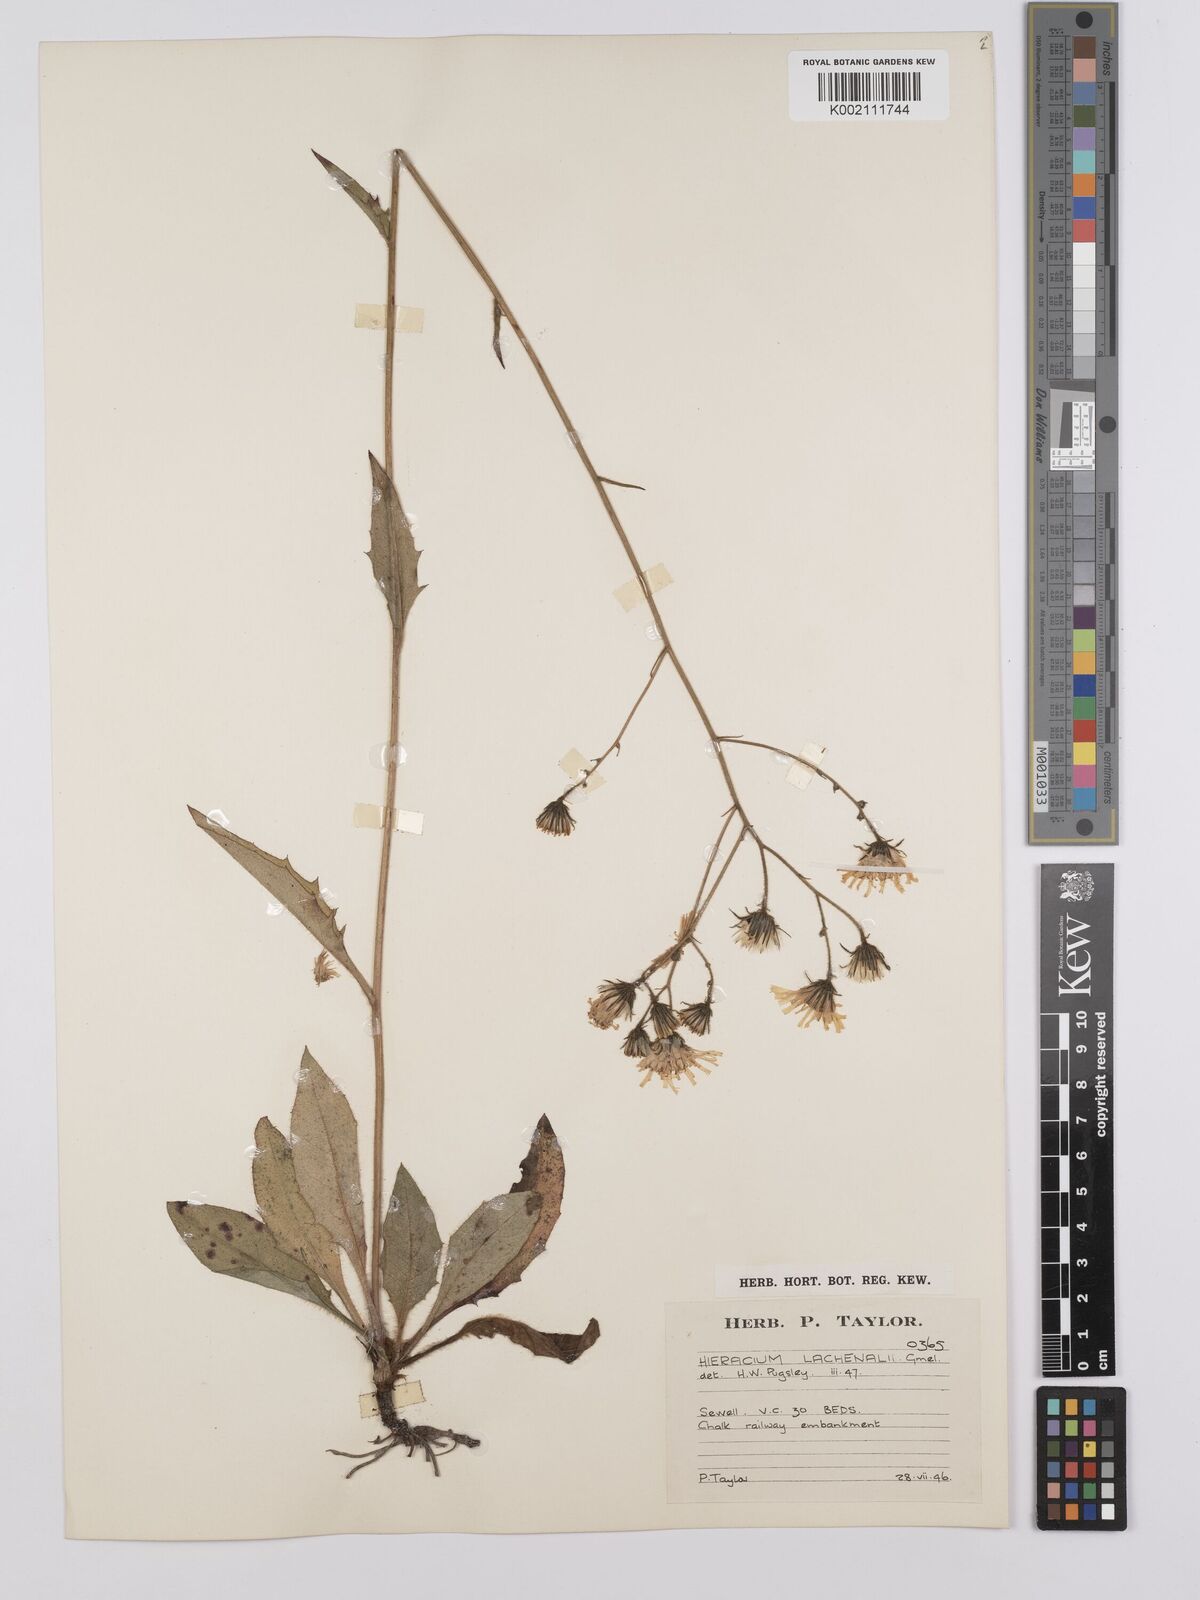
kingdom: Plantae
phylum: Tracheophyta
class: Magnoliopsida
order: Asterales
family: Asteraceae
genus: Hieracium
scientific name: Hieracium lachenalii
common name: Common hawkweed
